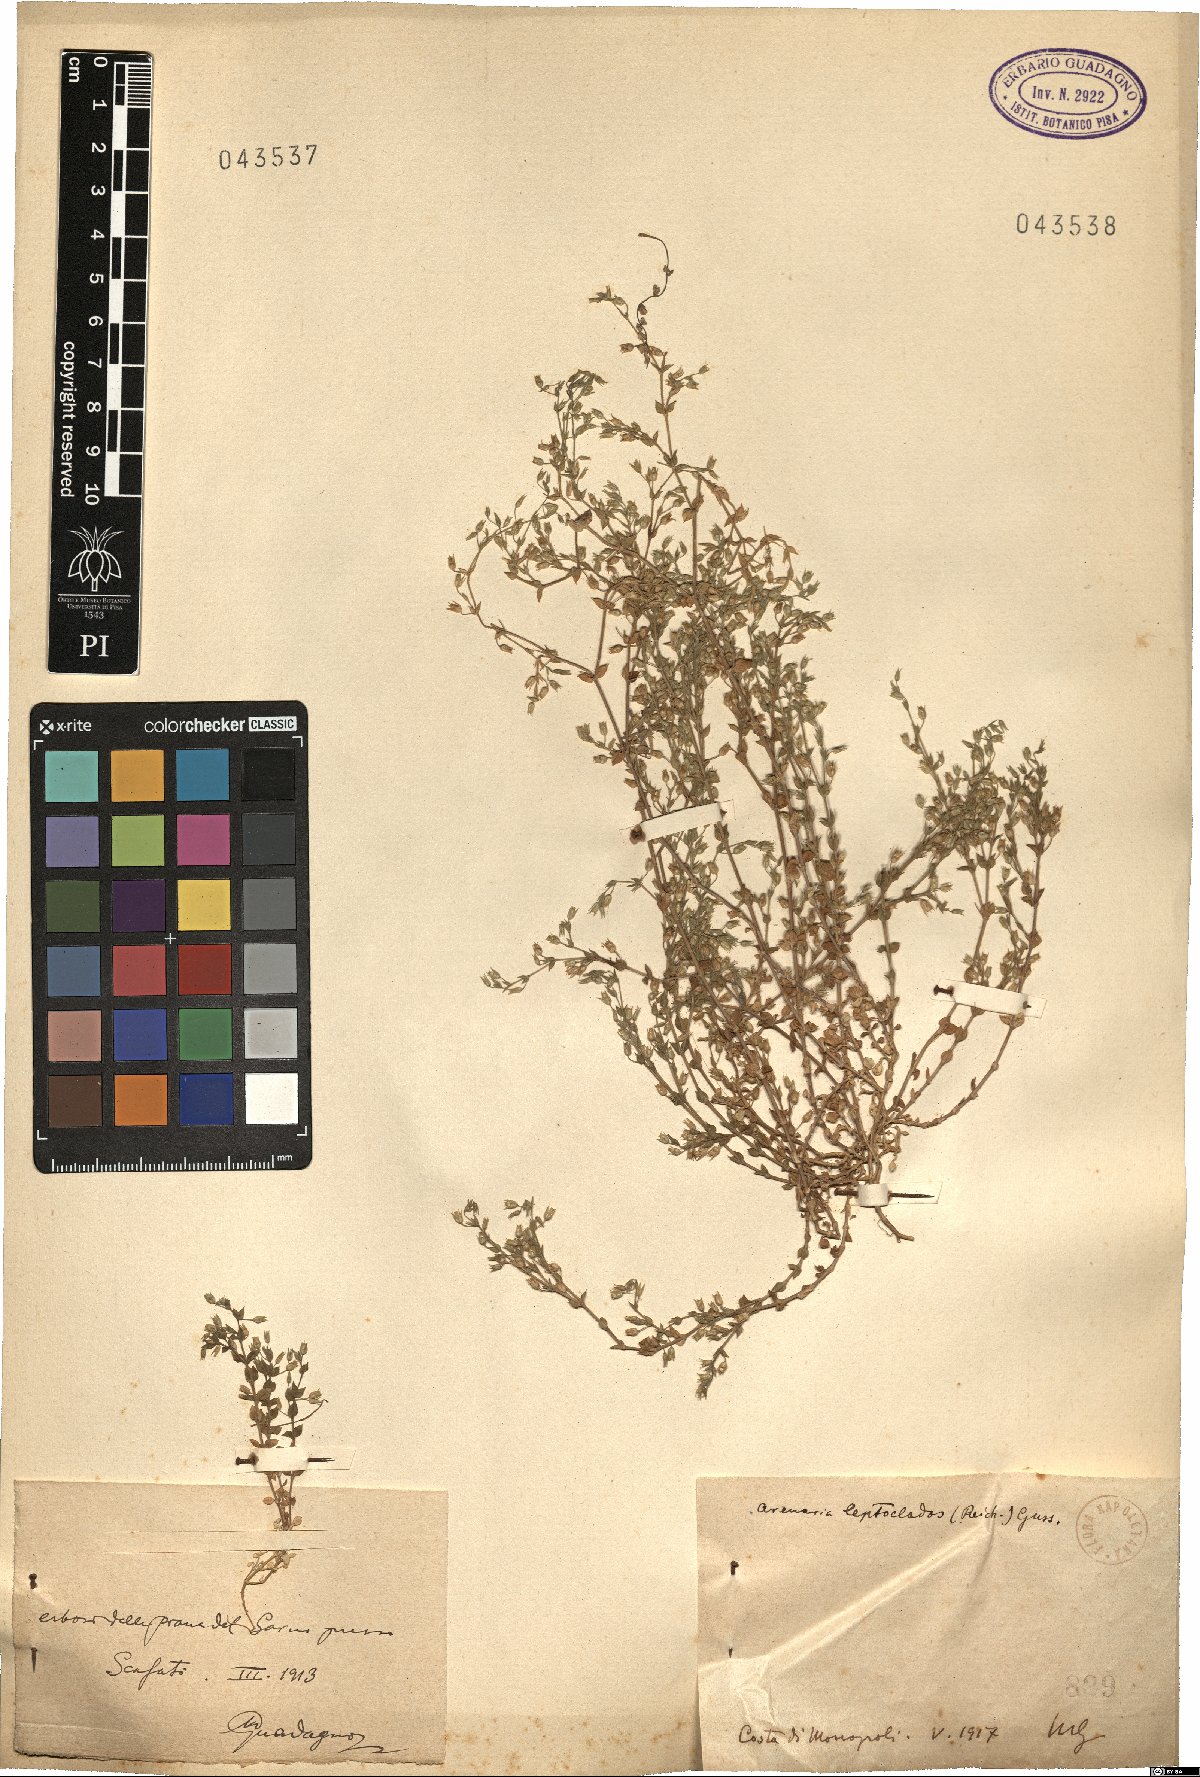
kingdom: Plantae
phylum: Tracheophyta
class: Magnoliopsida
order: Caryophyllales
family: Caryophyllaceae
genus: Arenaria
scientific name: Arenaria
